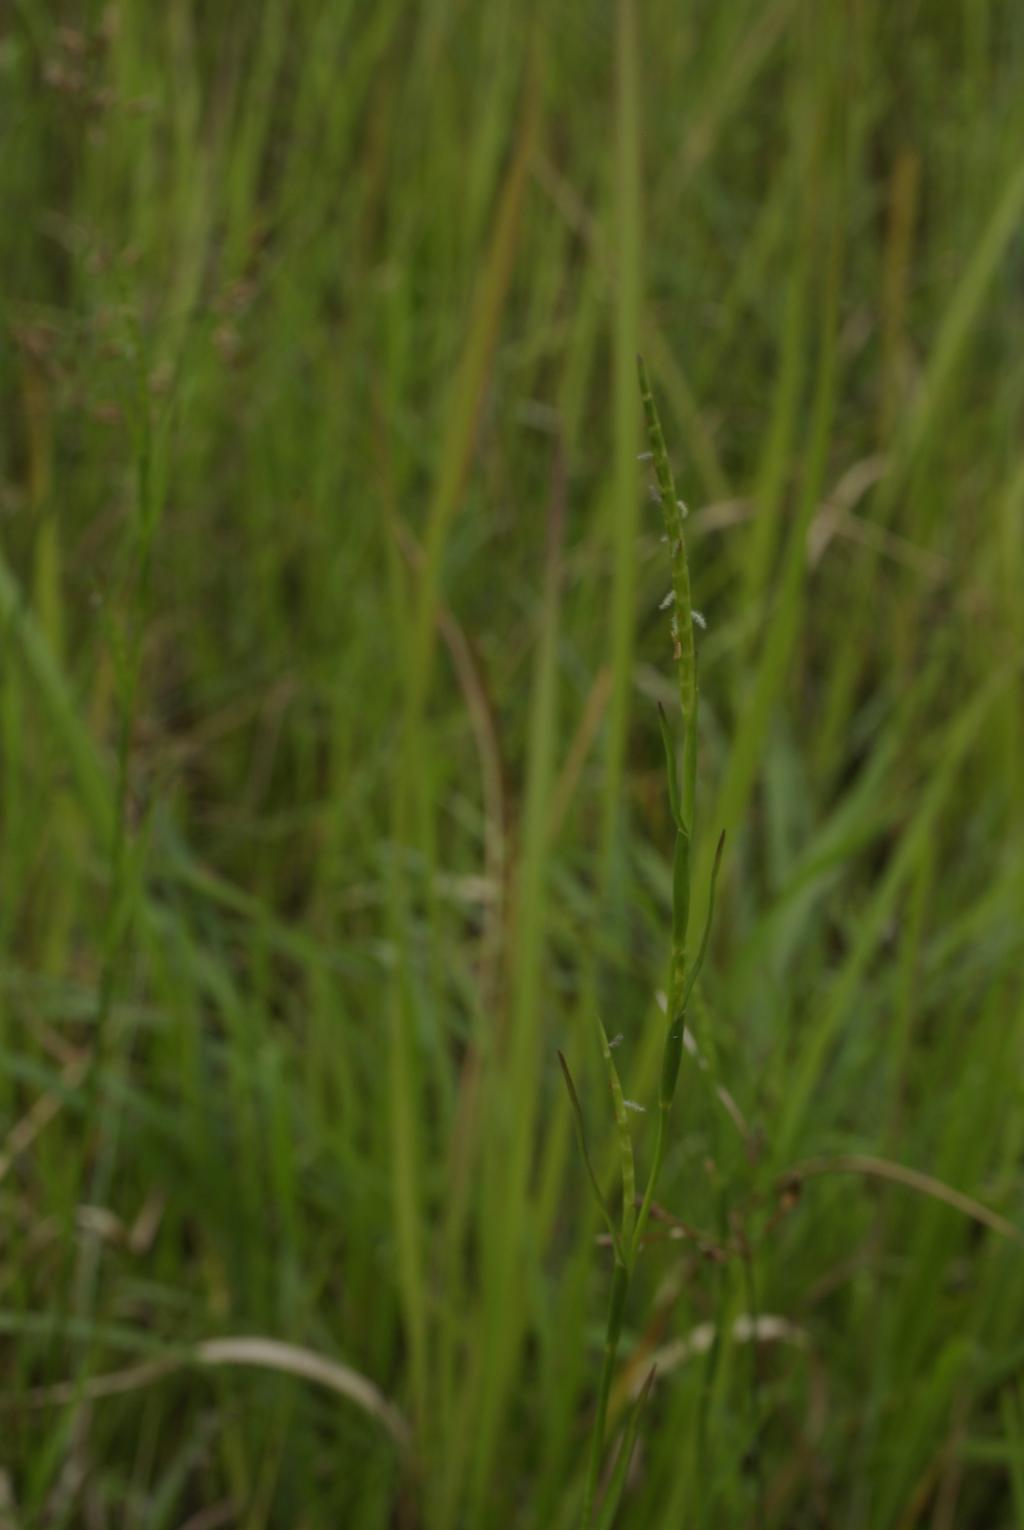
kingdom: Plantae
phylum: Tracheophyta
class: Liliopsida
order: Poales
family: Poaceae
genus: Hemarthria
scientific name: Hemarthria compressa
